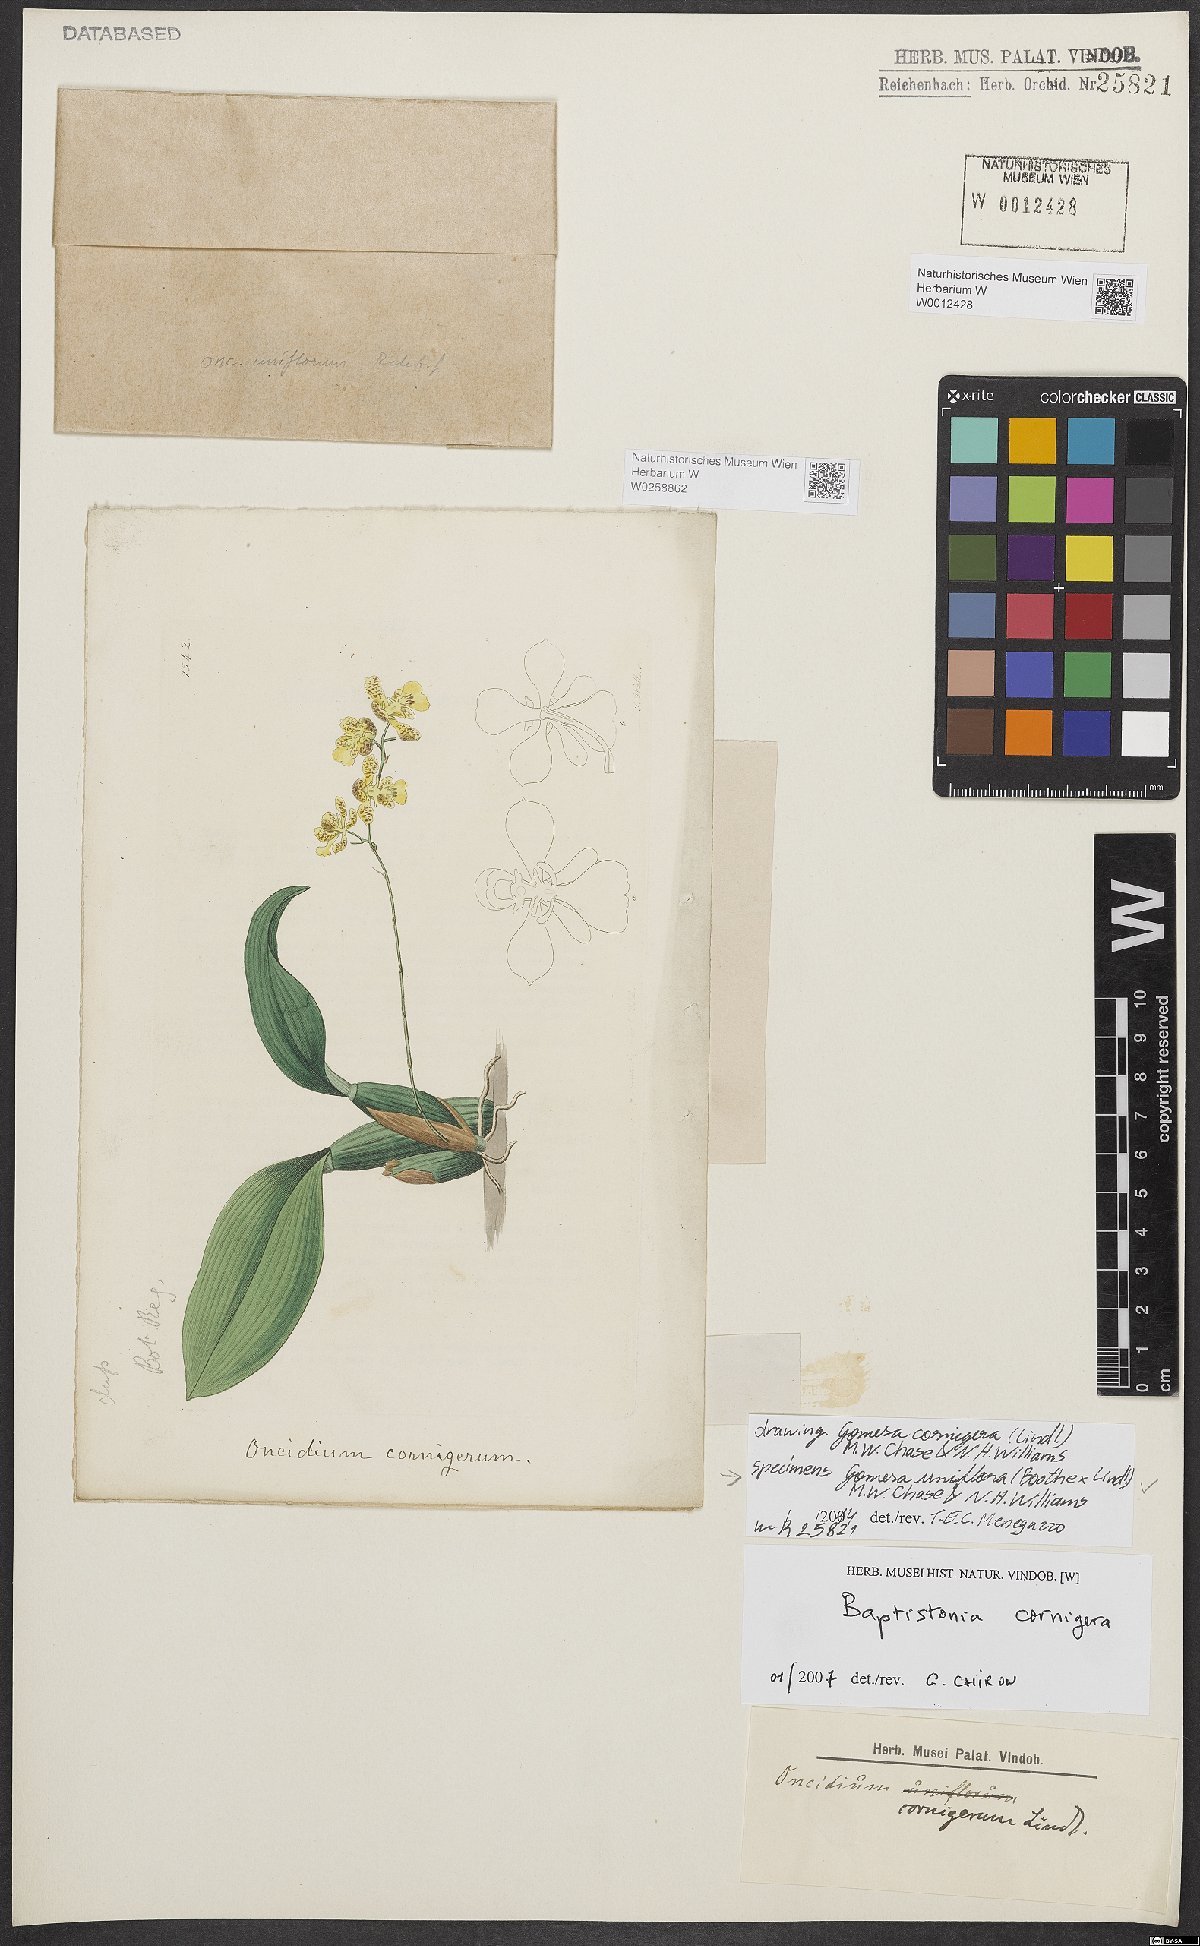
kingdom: Plantae
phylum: Tracheophyta
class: Liliopsida
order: Asparagales
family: Orchidaceae
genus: Gomesa
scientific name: Gomesa uniflora
